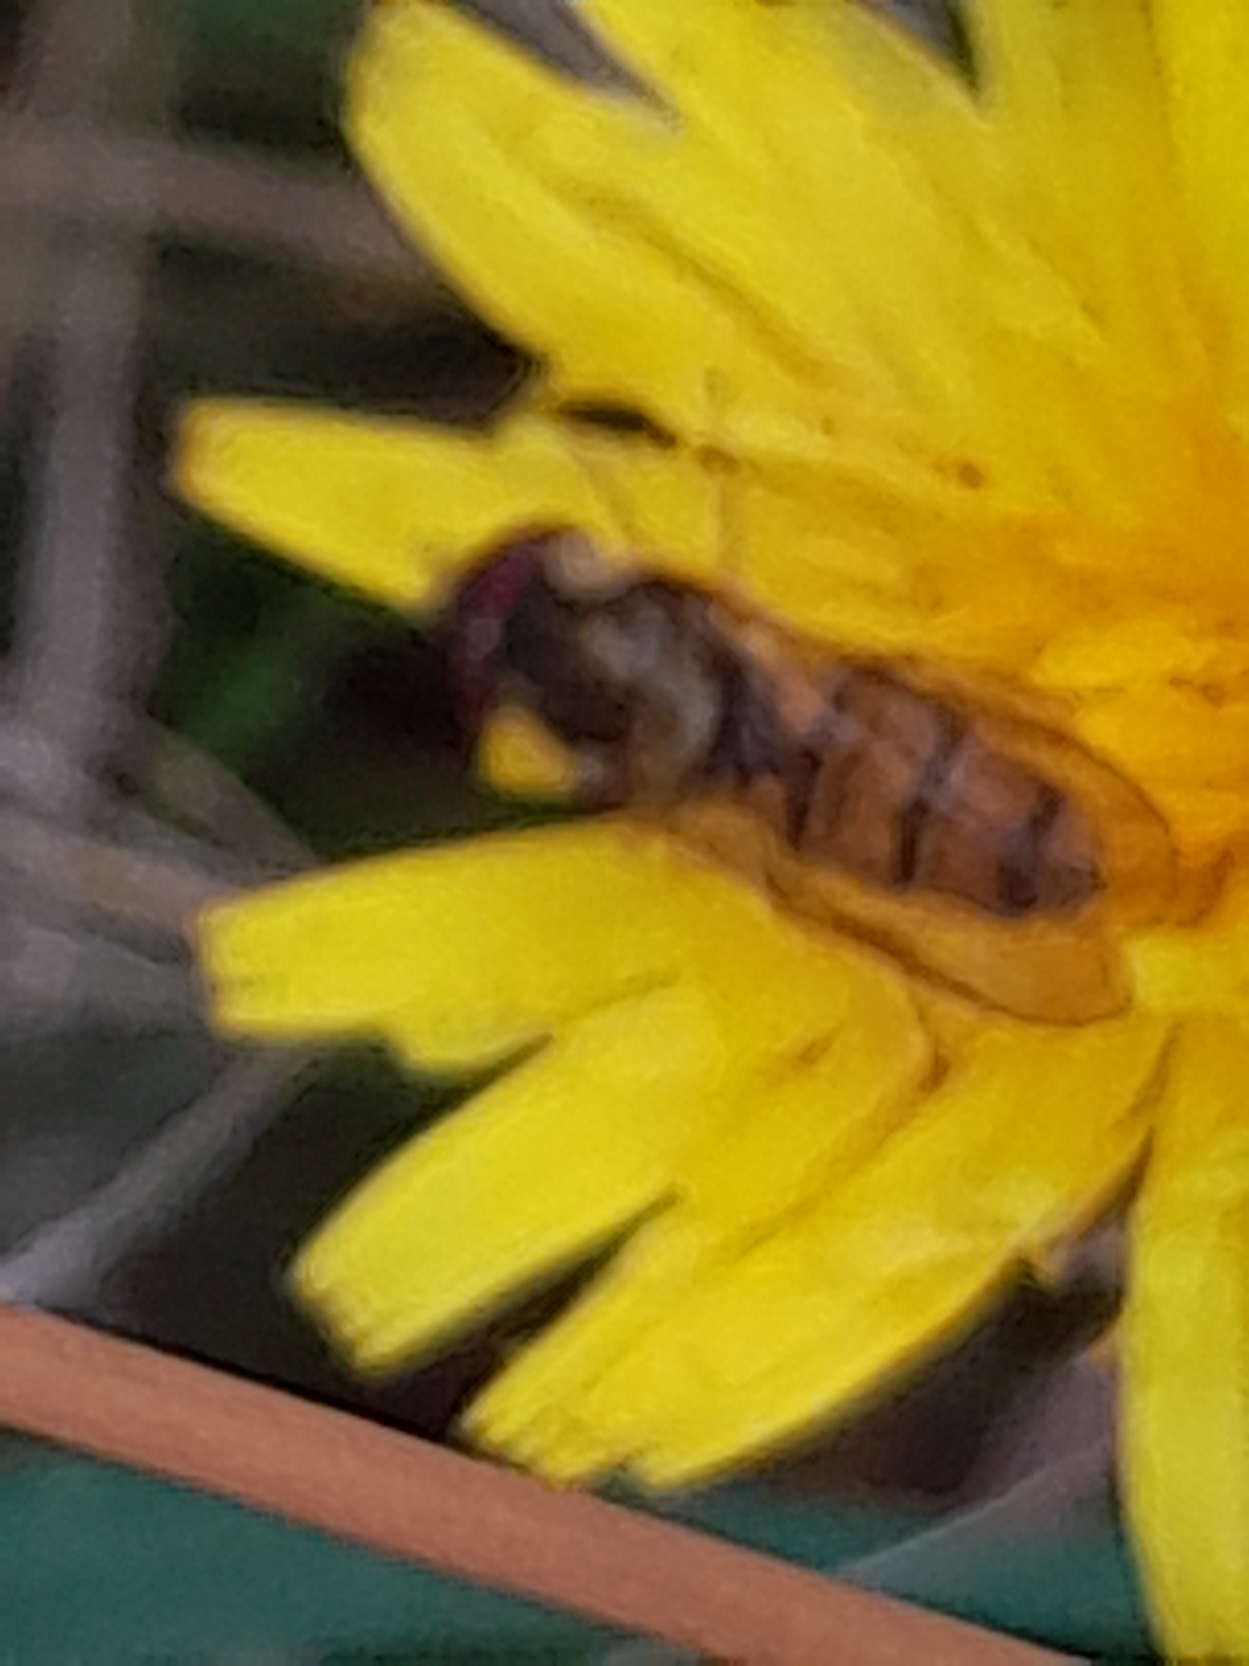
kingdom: Animalia
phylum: Arthropoda
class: Insecta
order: Diptera
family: Syrphidae
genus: Episyrphus
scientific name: Episyrphus balteatus
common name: Dobbeltbåndet svirreflue
